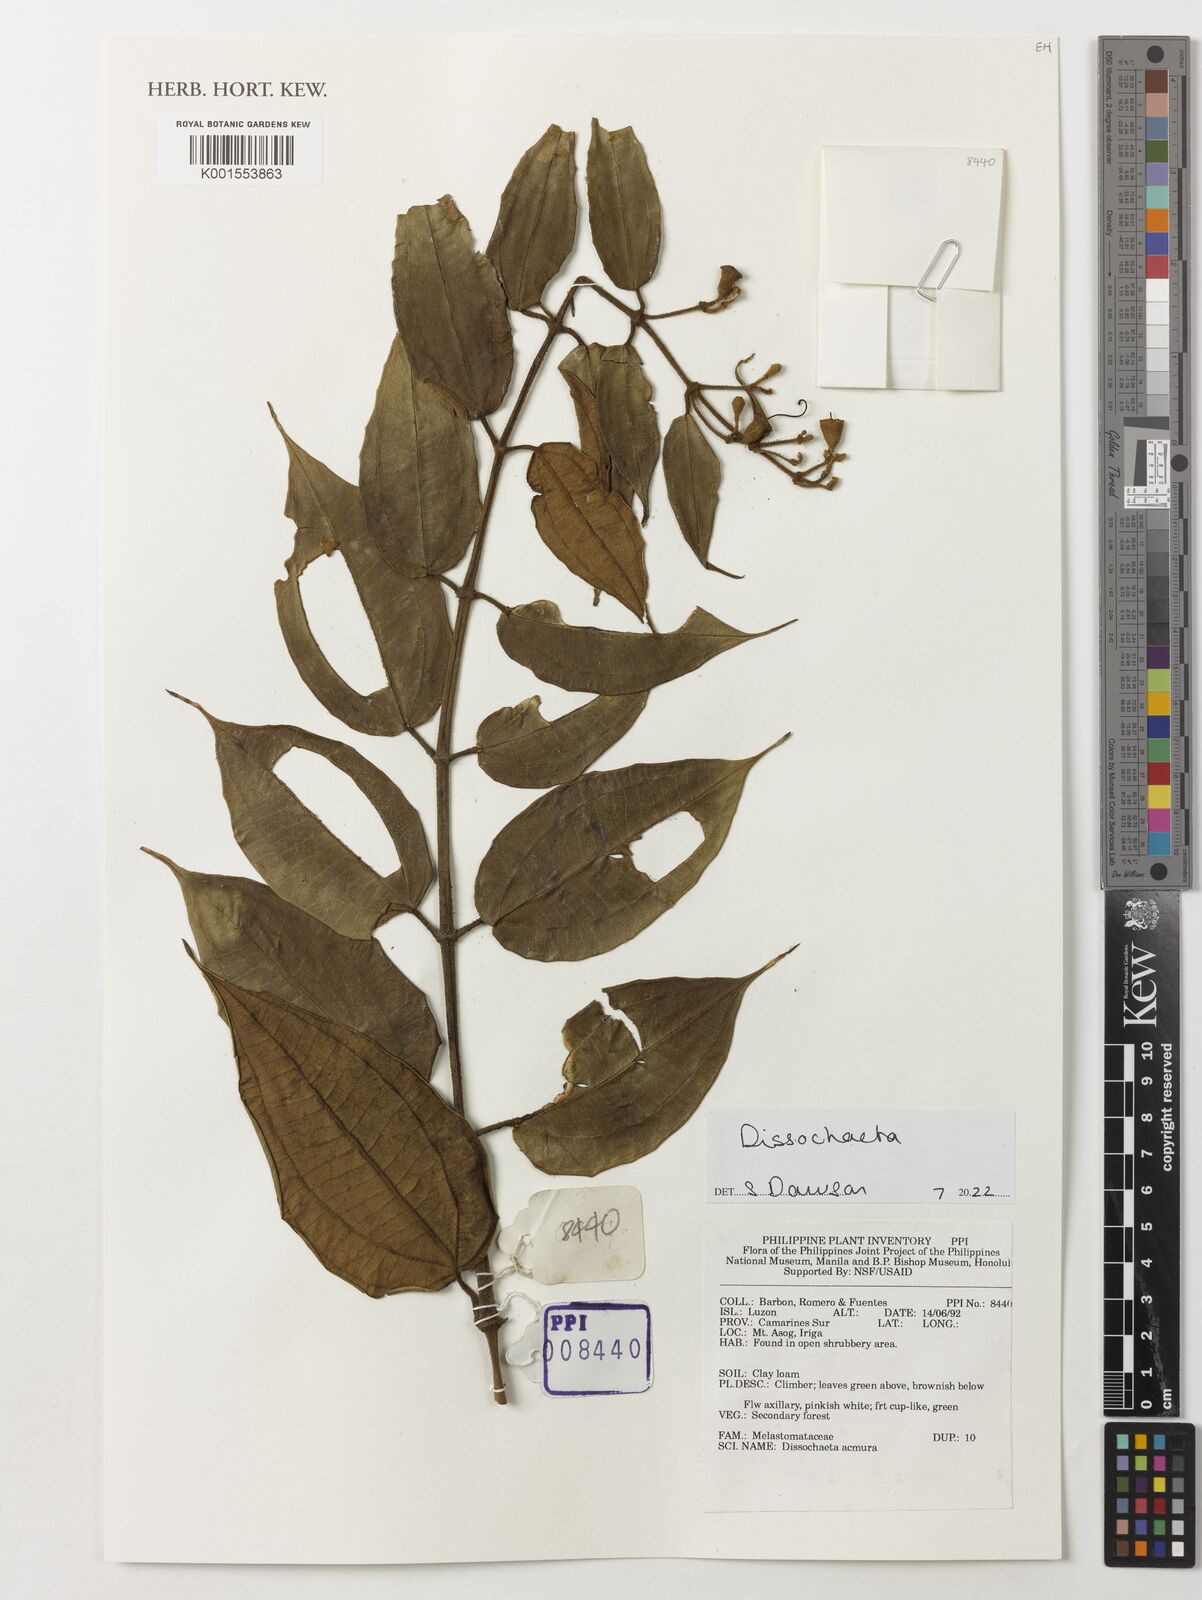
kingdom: Plantae
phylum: Tracheophyta
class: Magnoliopsida
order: Myrtales
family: Melastomataceae
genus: Dissochaeta
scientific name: Dissochaeta acmura
